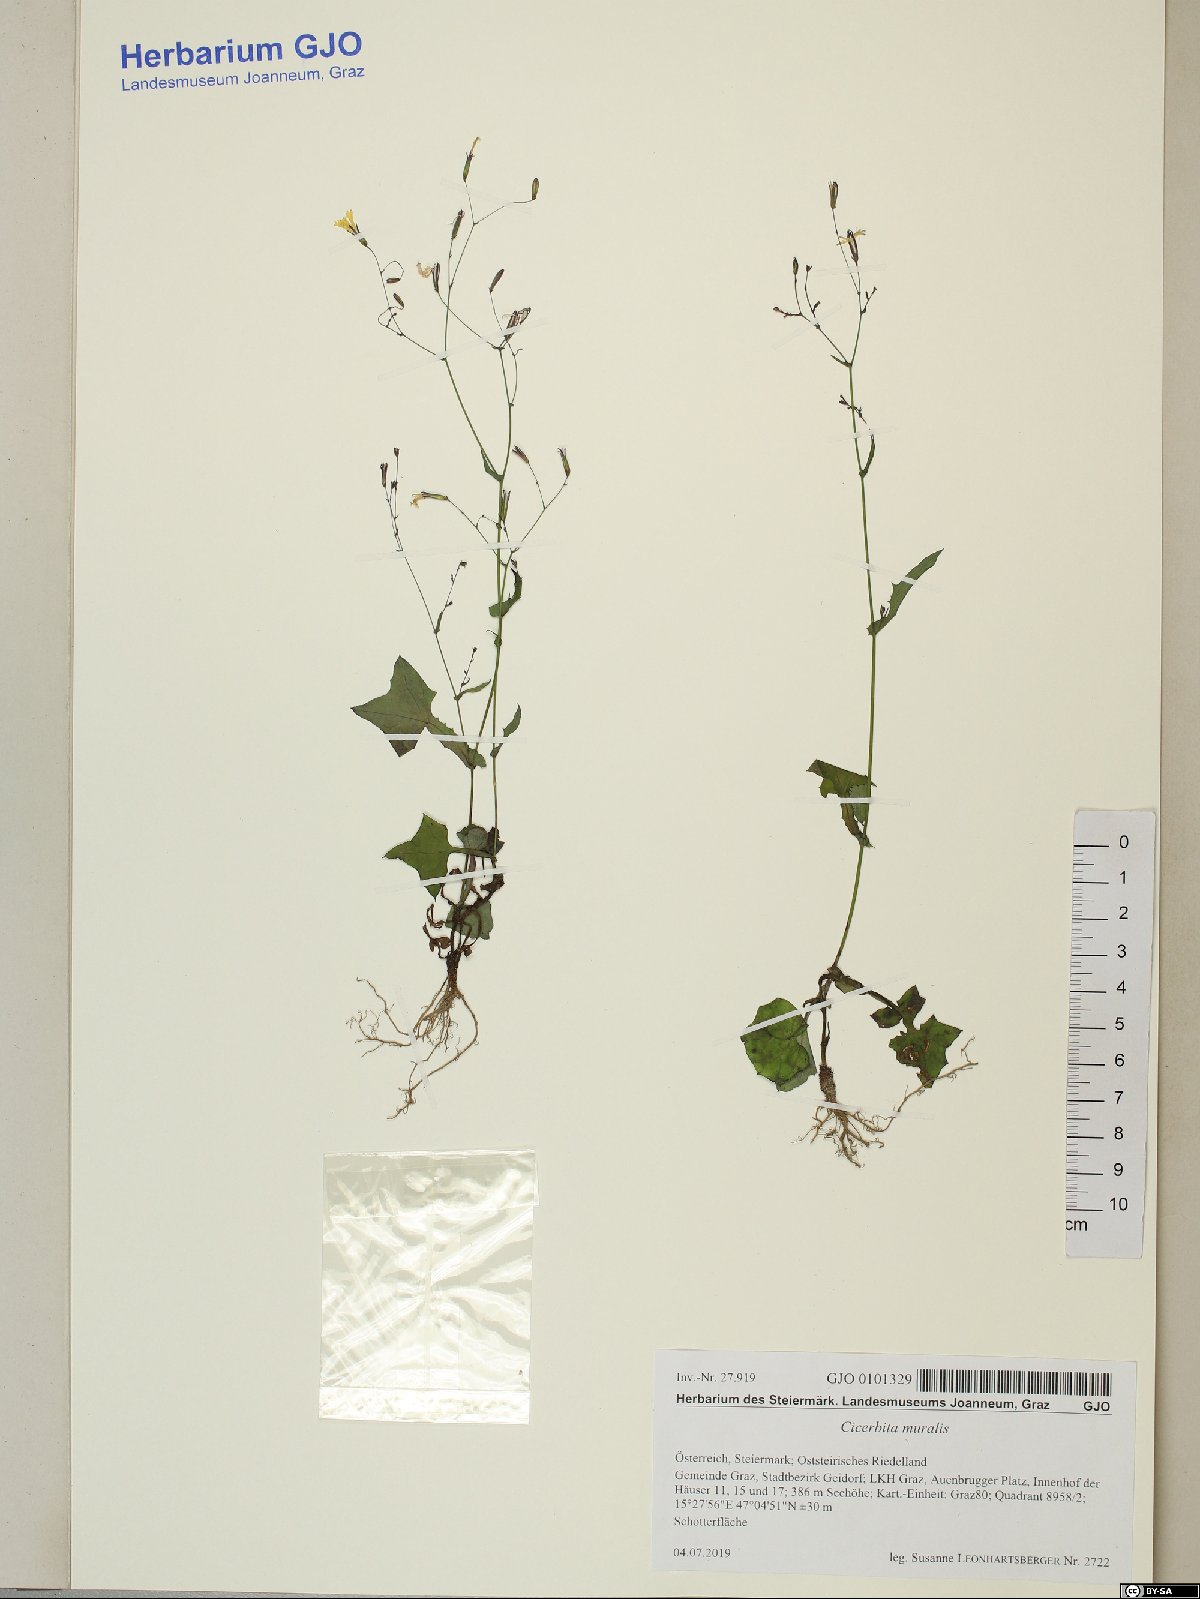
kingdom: Plantae
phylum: Tracheophyta
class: Magnoliopsida
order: Asterales
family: Asteraceae
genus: Mycelis
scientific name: Mycelis muralis
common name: Wall lettuce
